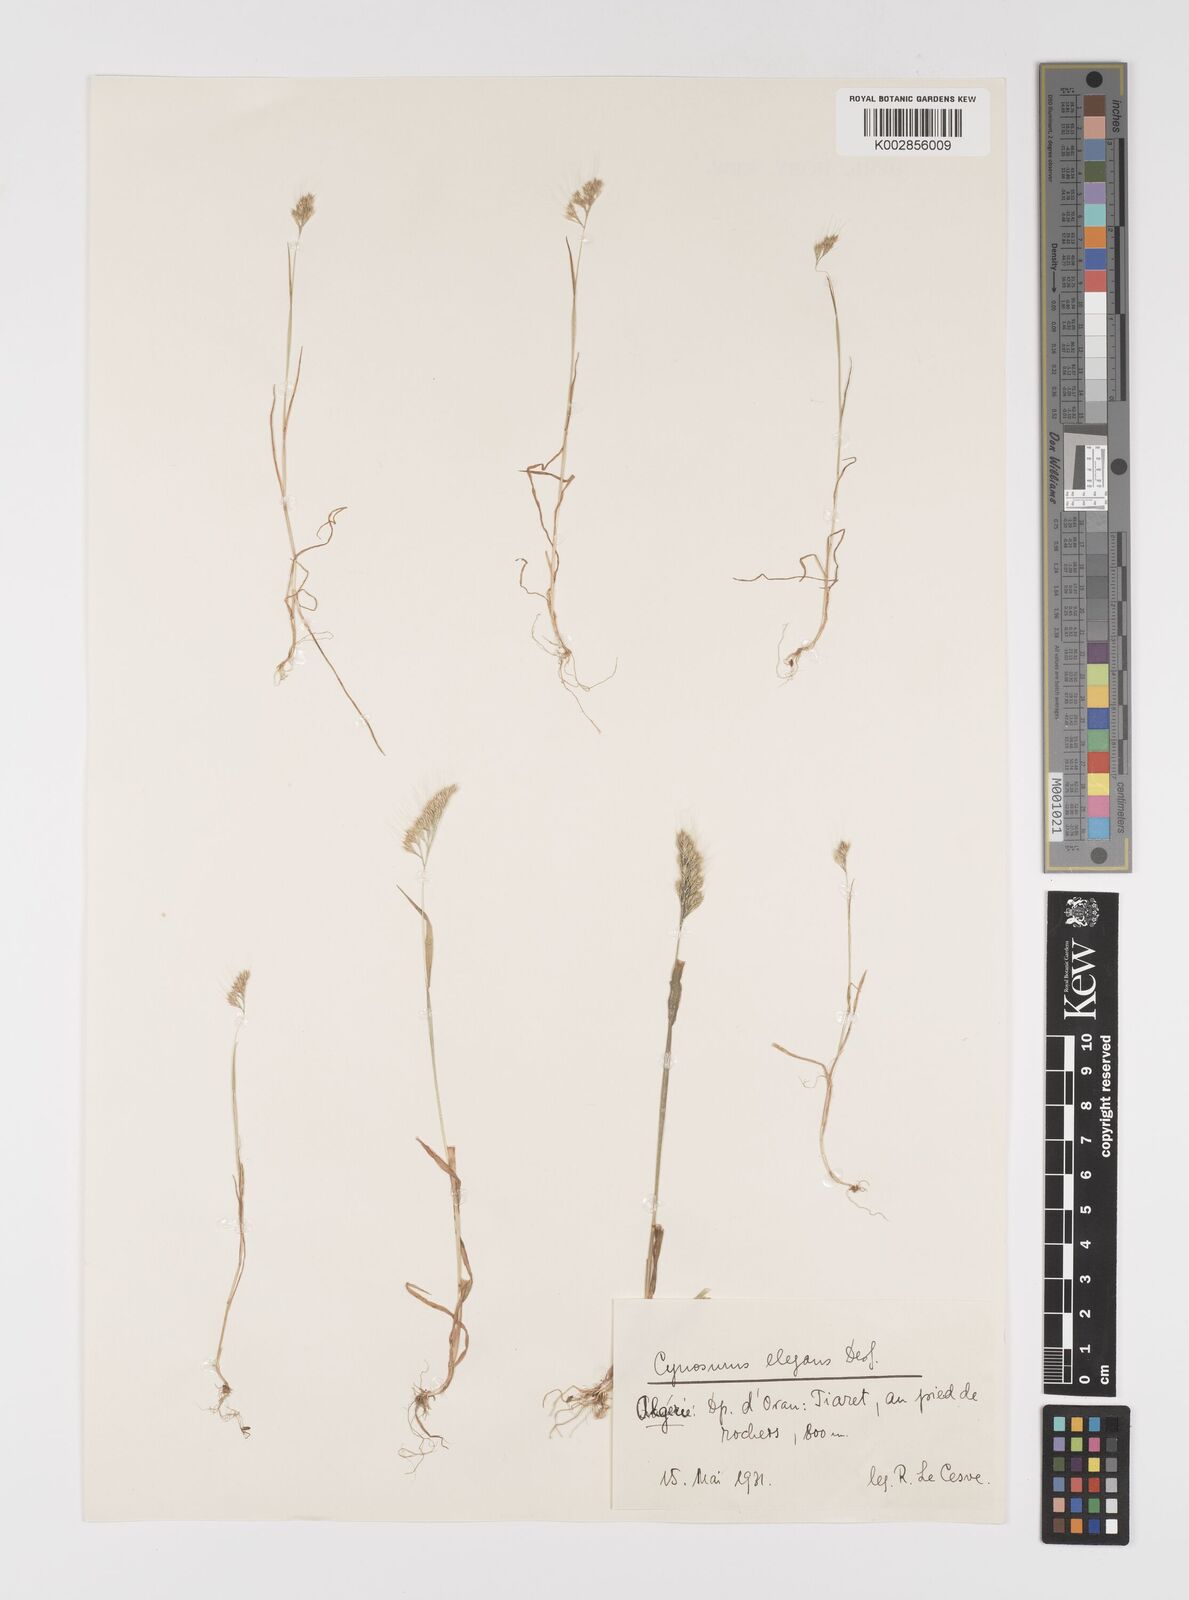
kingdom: Plantae
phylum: Tracheophyta
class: Liliopsida
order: Poales
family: Poaceae
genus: Cynosurus
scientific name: Cynosurus elegans
